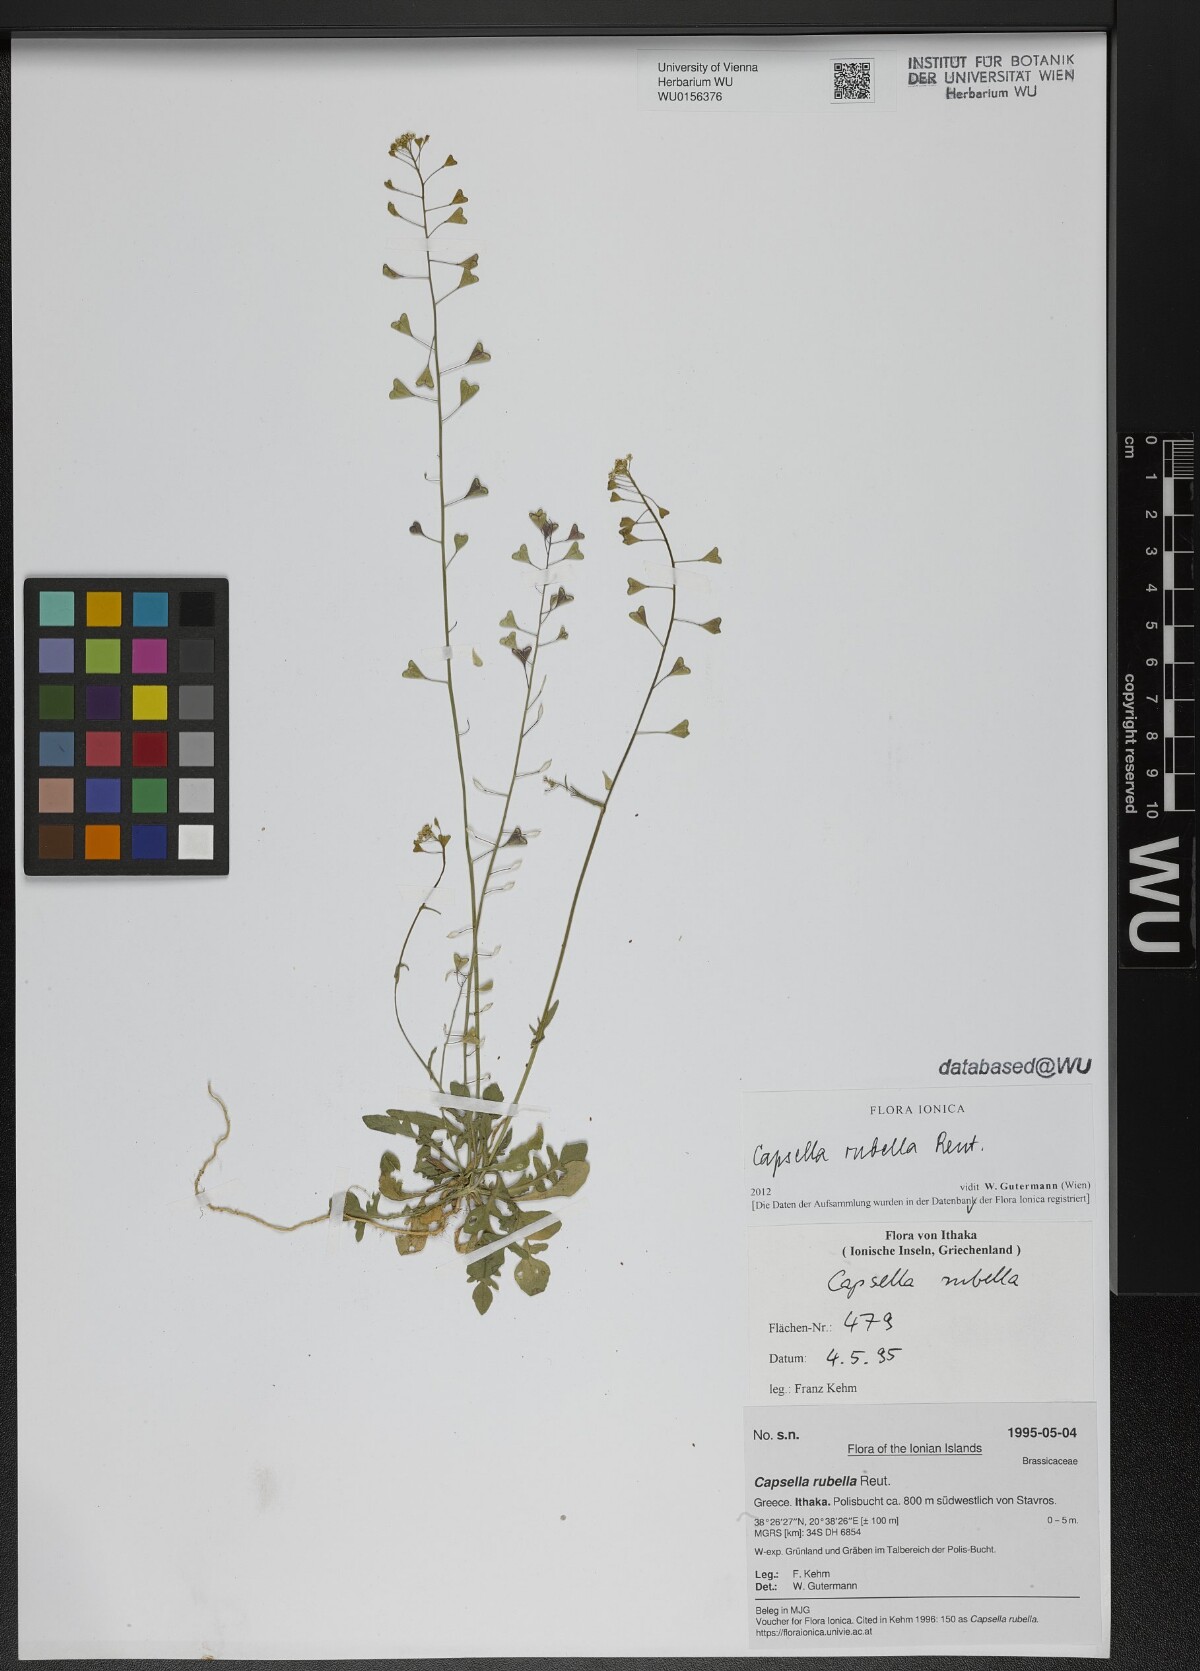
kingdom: Plantae
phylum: Tracheophyta
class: Magnoliopsida
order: Brassicales
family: Brassicaceae
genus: Capsella
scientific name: Capsella rubella
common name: Pink shepherd's-purse
